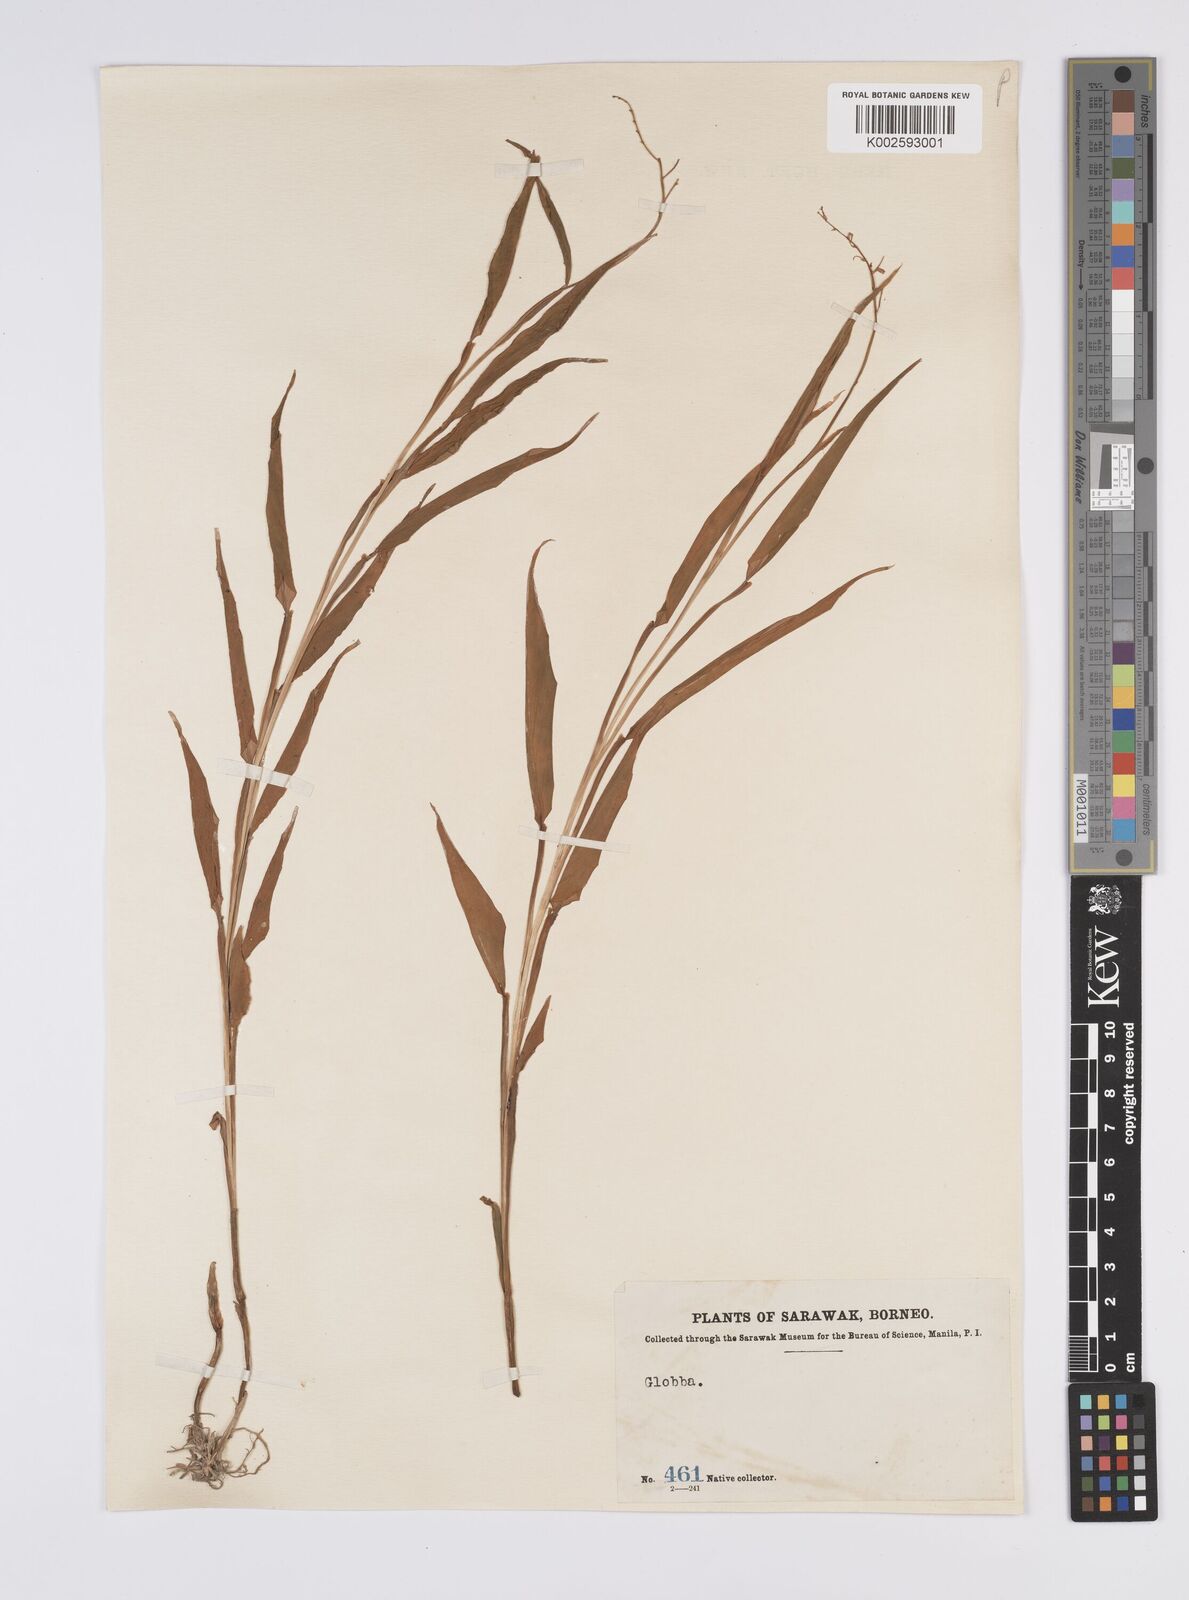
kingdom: Plantae
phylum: Tracheophyta
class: Liliopsida
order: Zingiberales
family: Zingiberaceae
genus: Globba
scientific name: Globba brachyanthera
